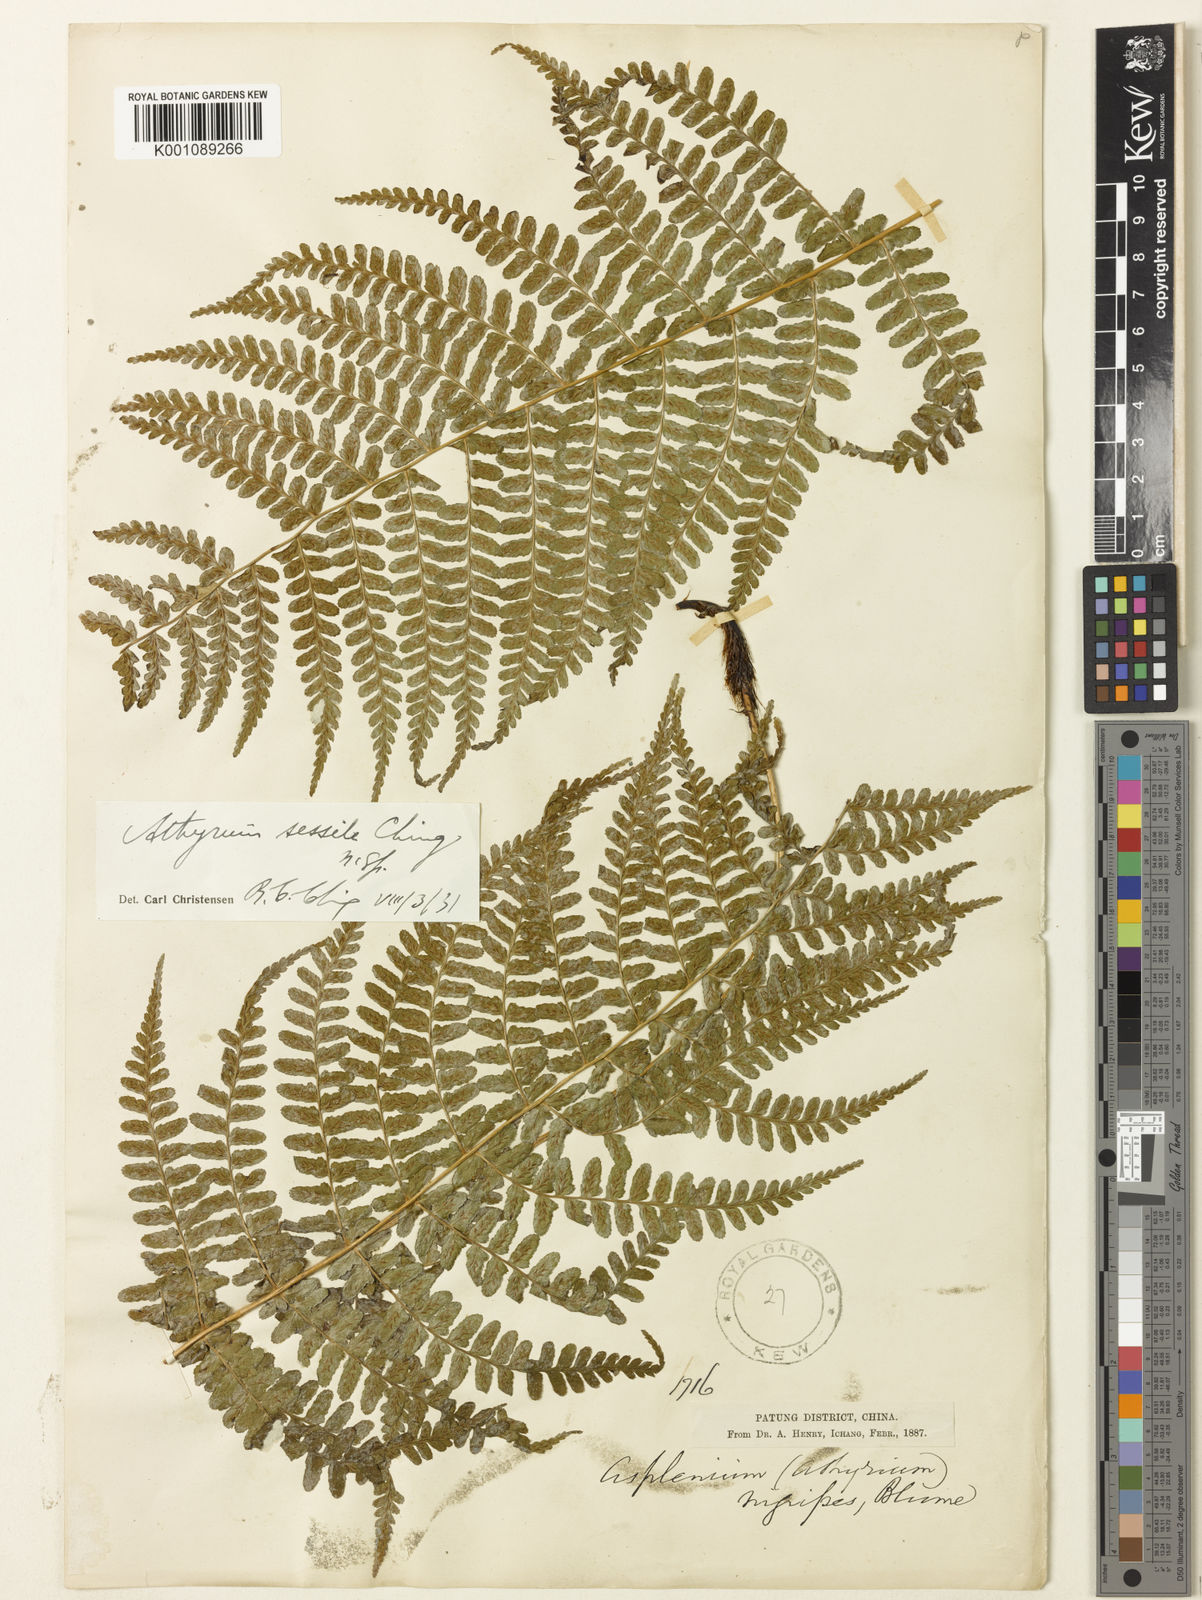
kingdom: Plantae
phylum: Tracheophyta
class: Polypodiopsida
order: Polypodiales
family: Athyriaceae
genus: Athyrium
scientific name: Athyrium pubicostatum
